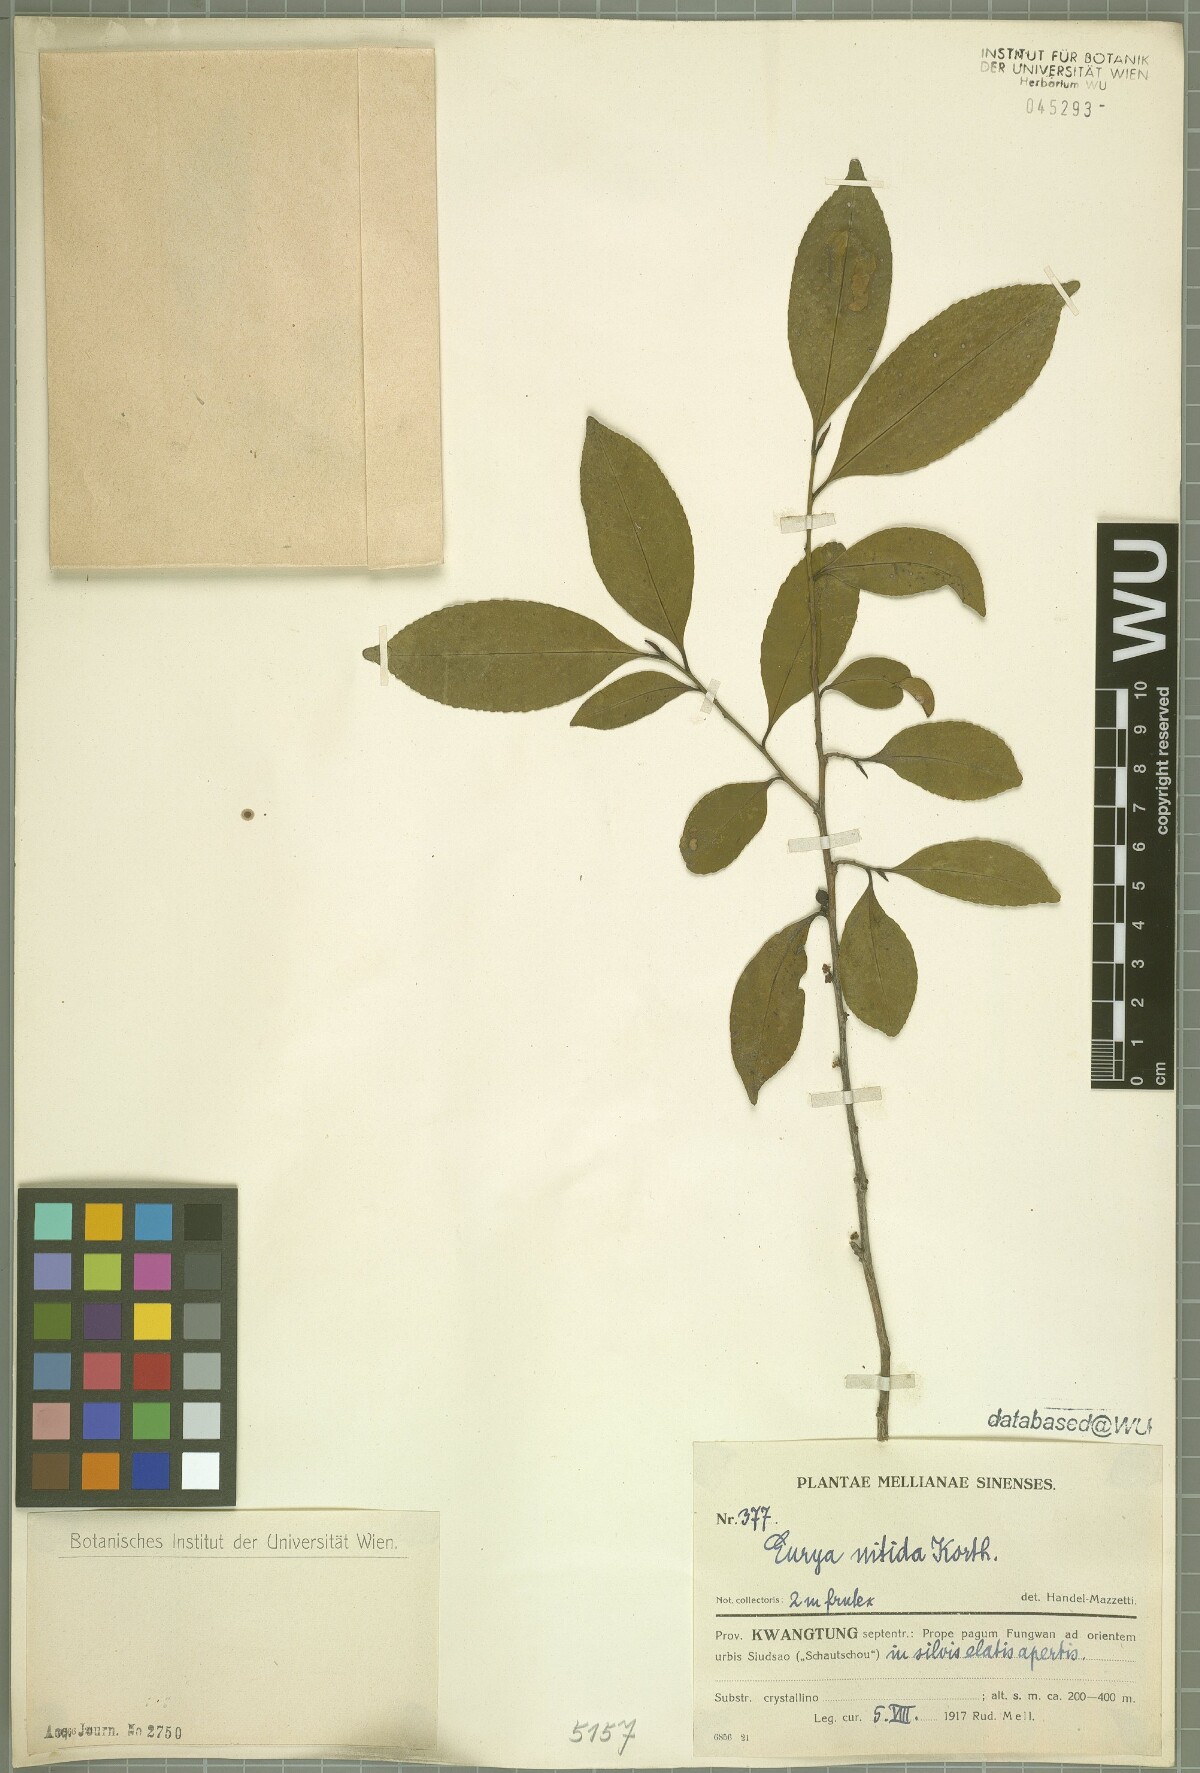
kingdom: Plantae
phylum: Tracheophyta
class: Magnoliopsida
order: Ericales
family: Pentaphylacaceae
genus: Eurya
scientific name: Eurya nitida
